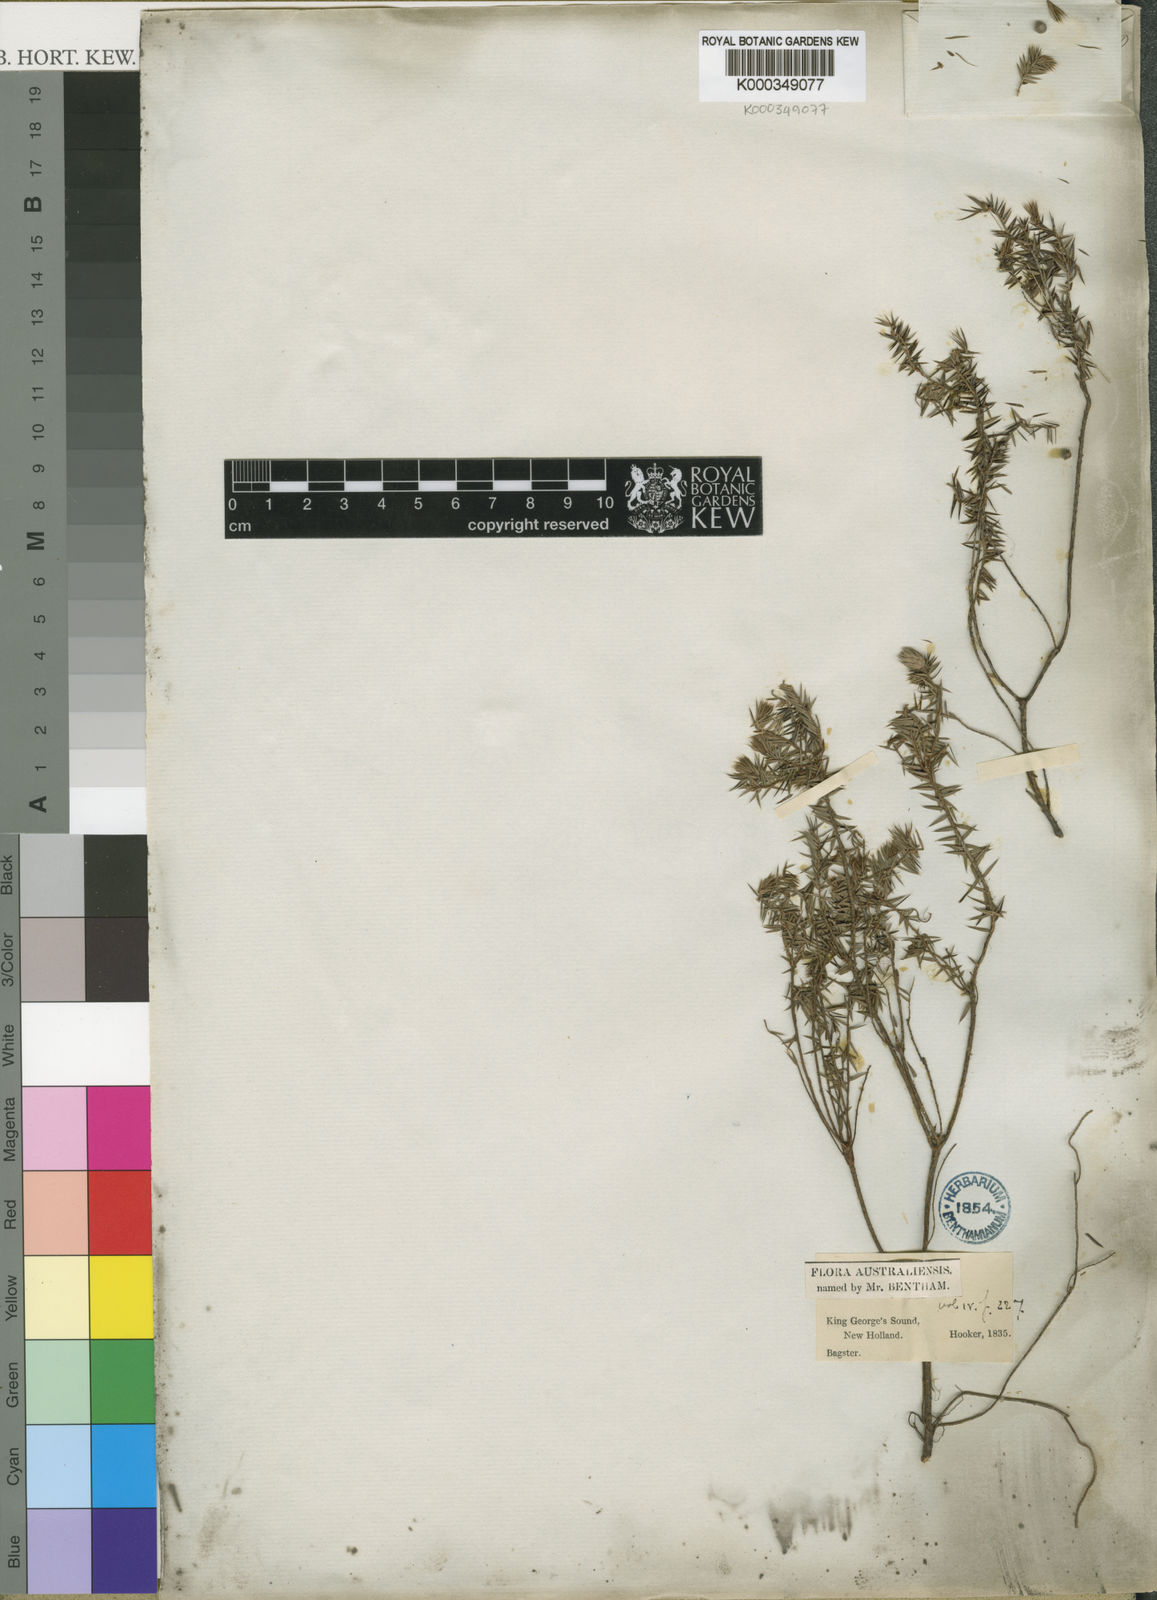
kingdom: Plantae
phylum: Tracheophyta
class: Magnoliopsida
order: Ericales
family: Ericaceae
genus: Styphelia
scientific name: Styphelia
